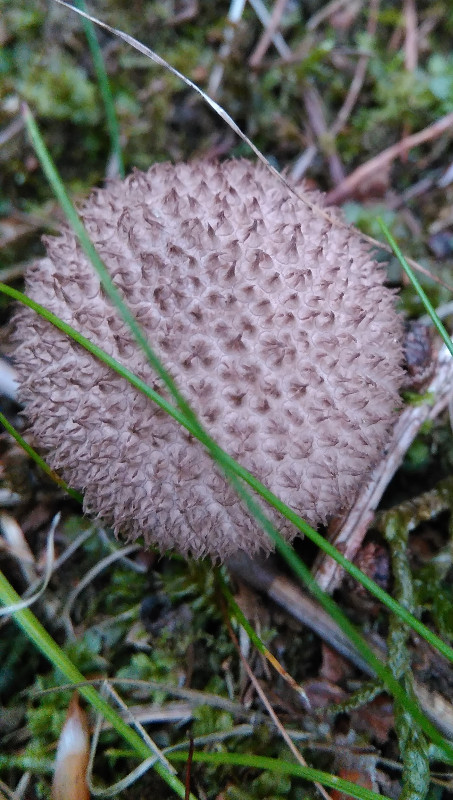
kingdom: Fungi
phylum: Basidiomycota
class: Agaricomycetes
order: Agaricales
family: Lycoperdaceae
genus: Lycoperdon
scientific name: Lycoperdon nigrescens
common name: sortagtig støvbold
